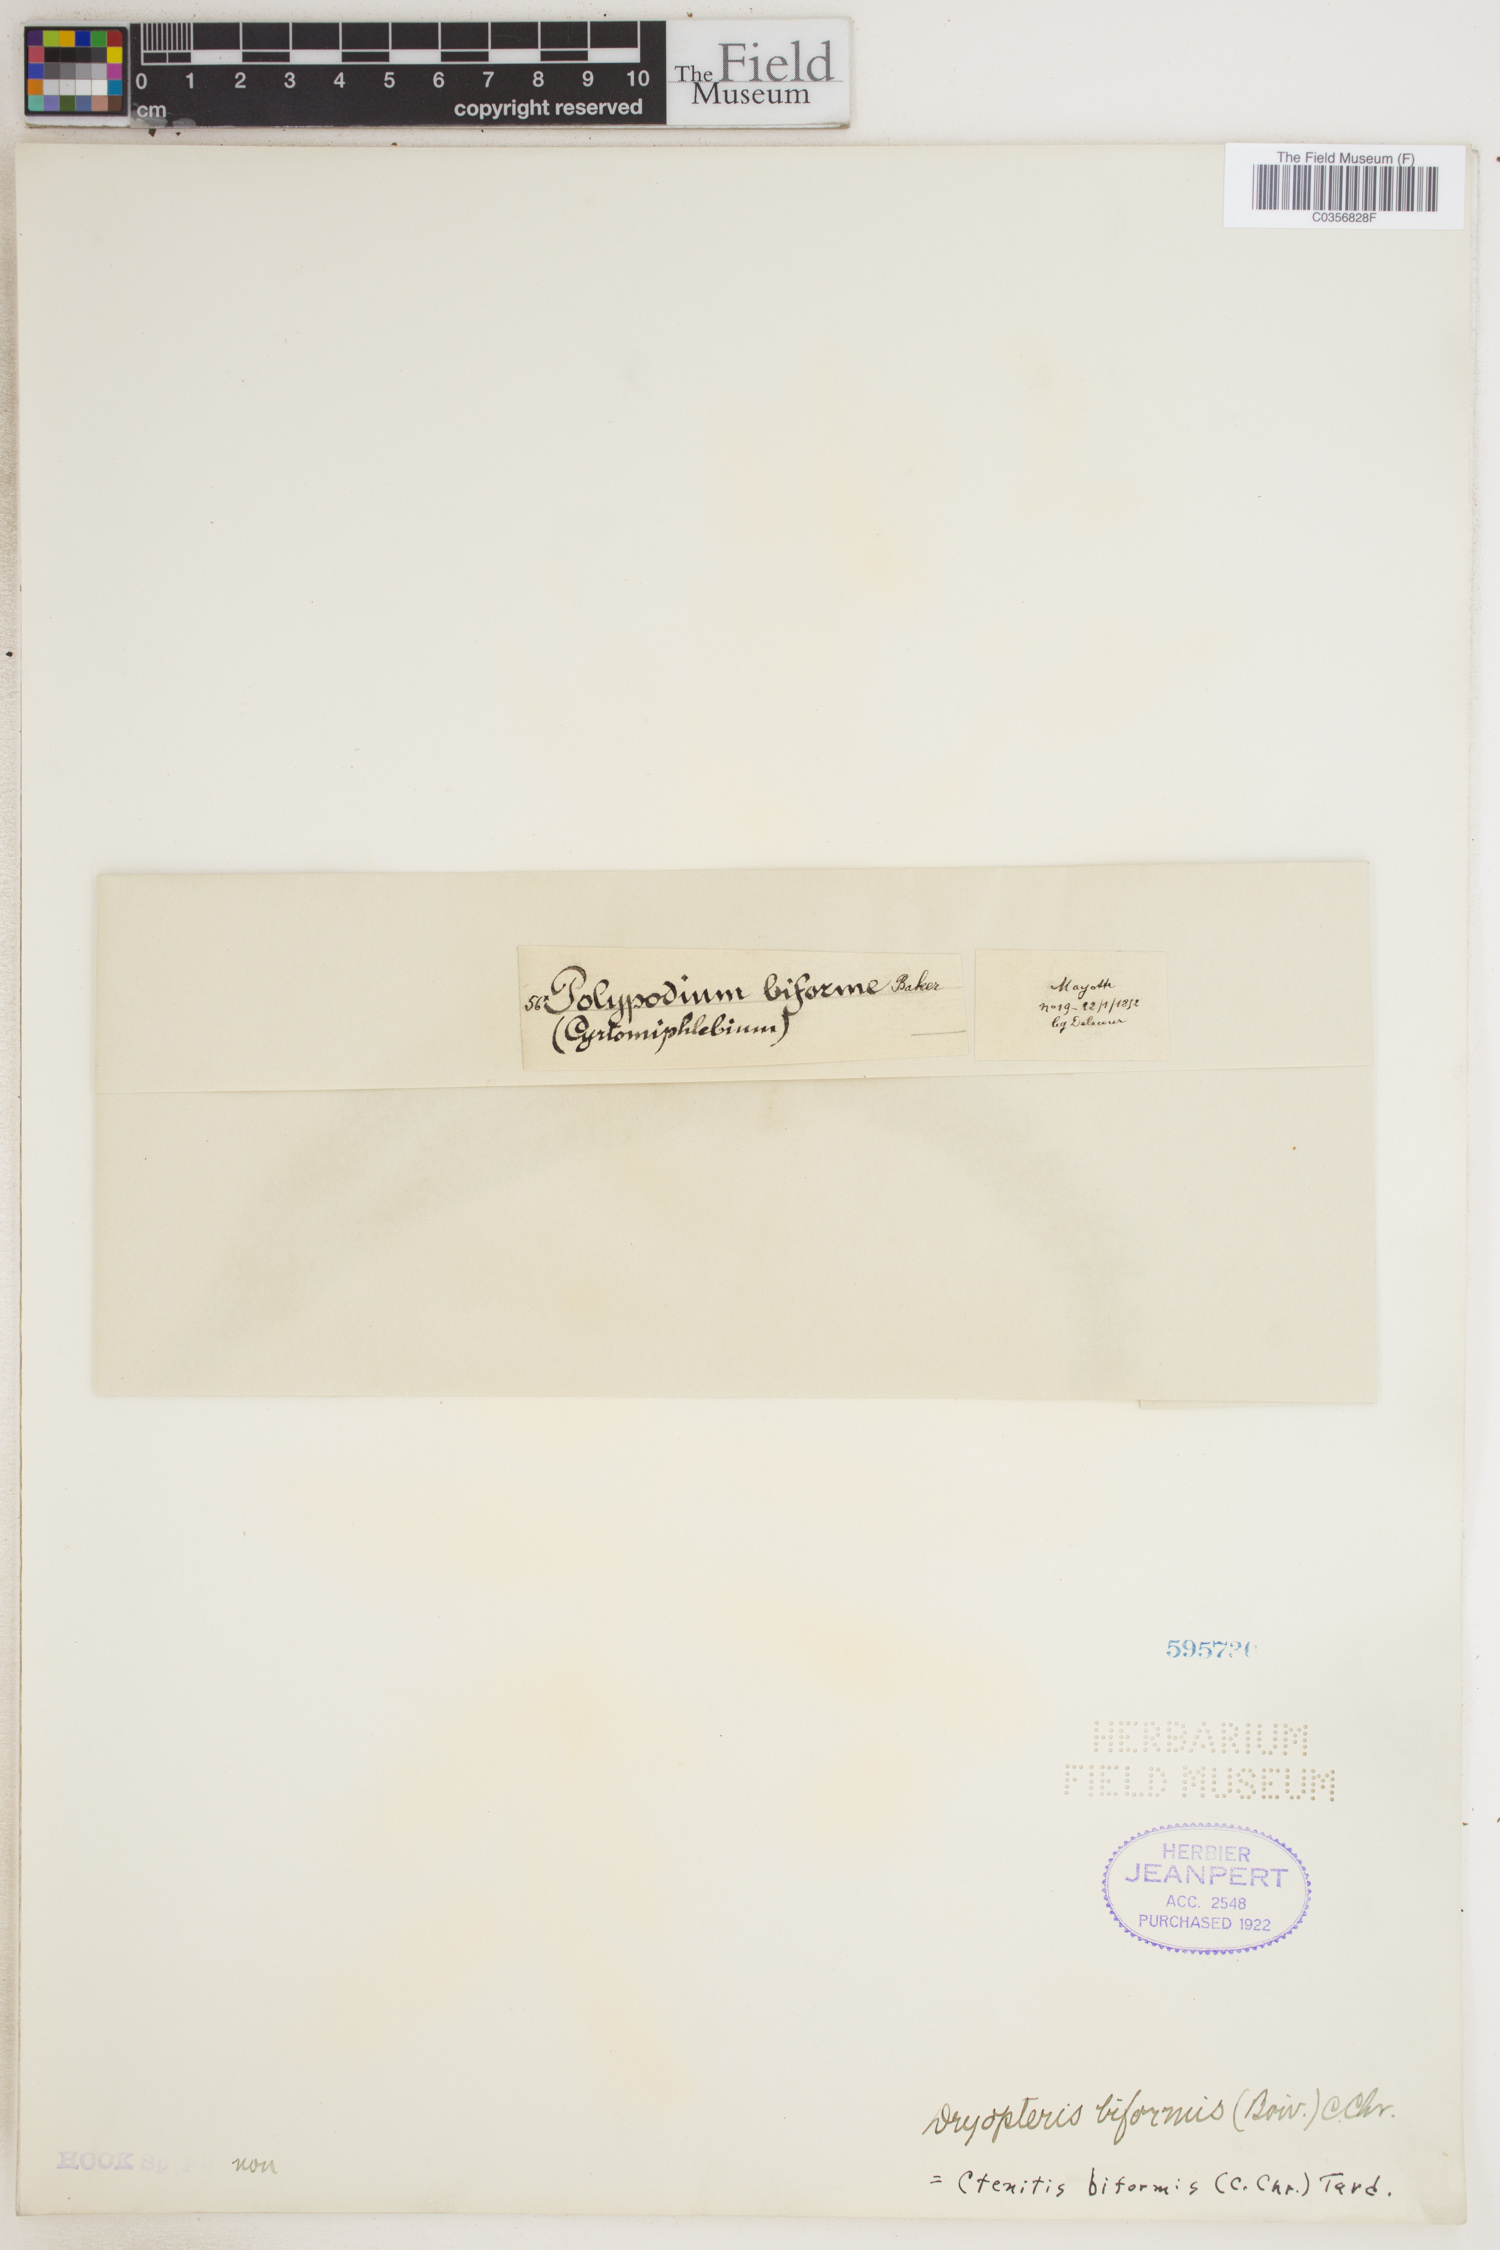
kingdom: Plantae
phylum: Tracheophyta
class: Polypodiopsida
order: Polypodiales
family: Dryopteridaceae
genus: Ctenitis
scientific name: Ctenitis biformis
